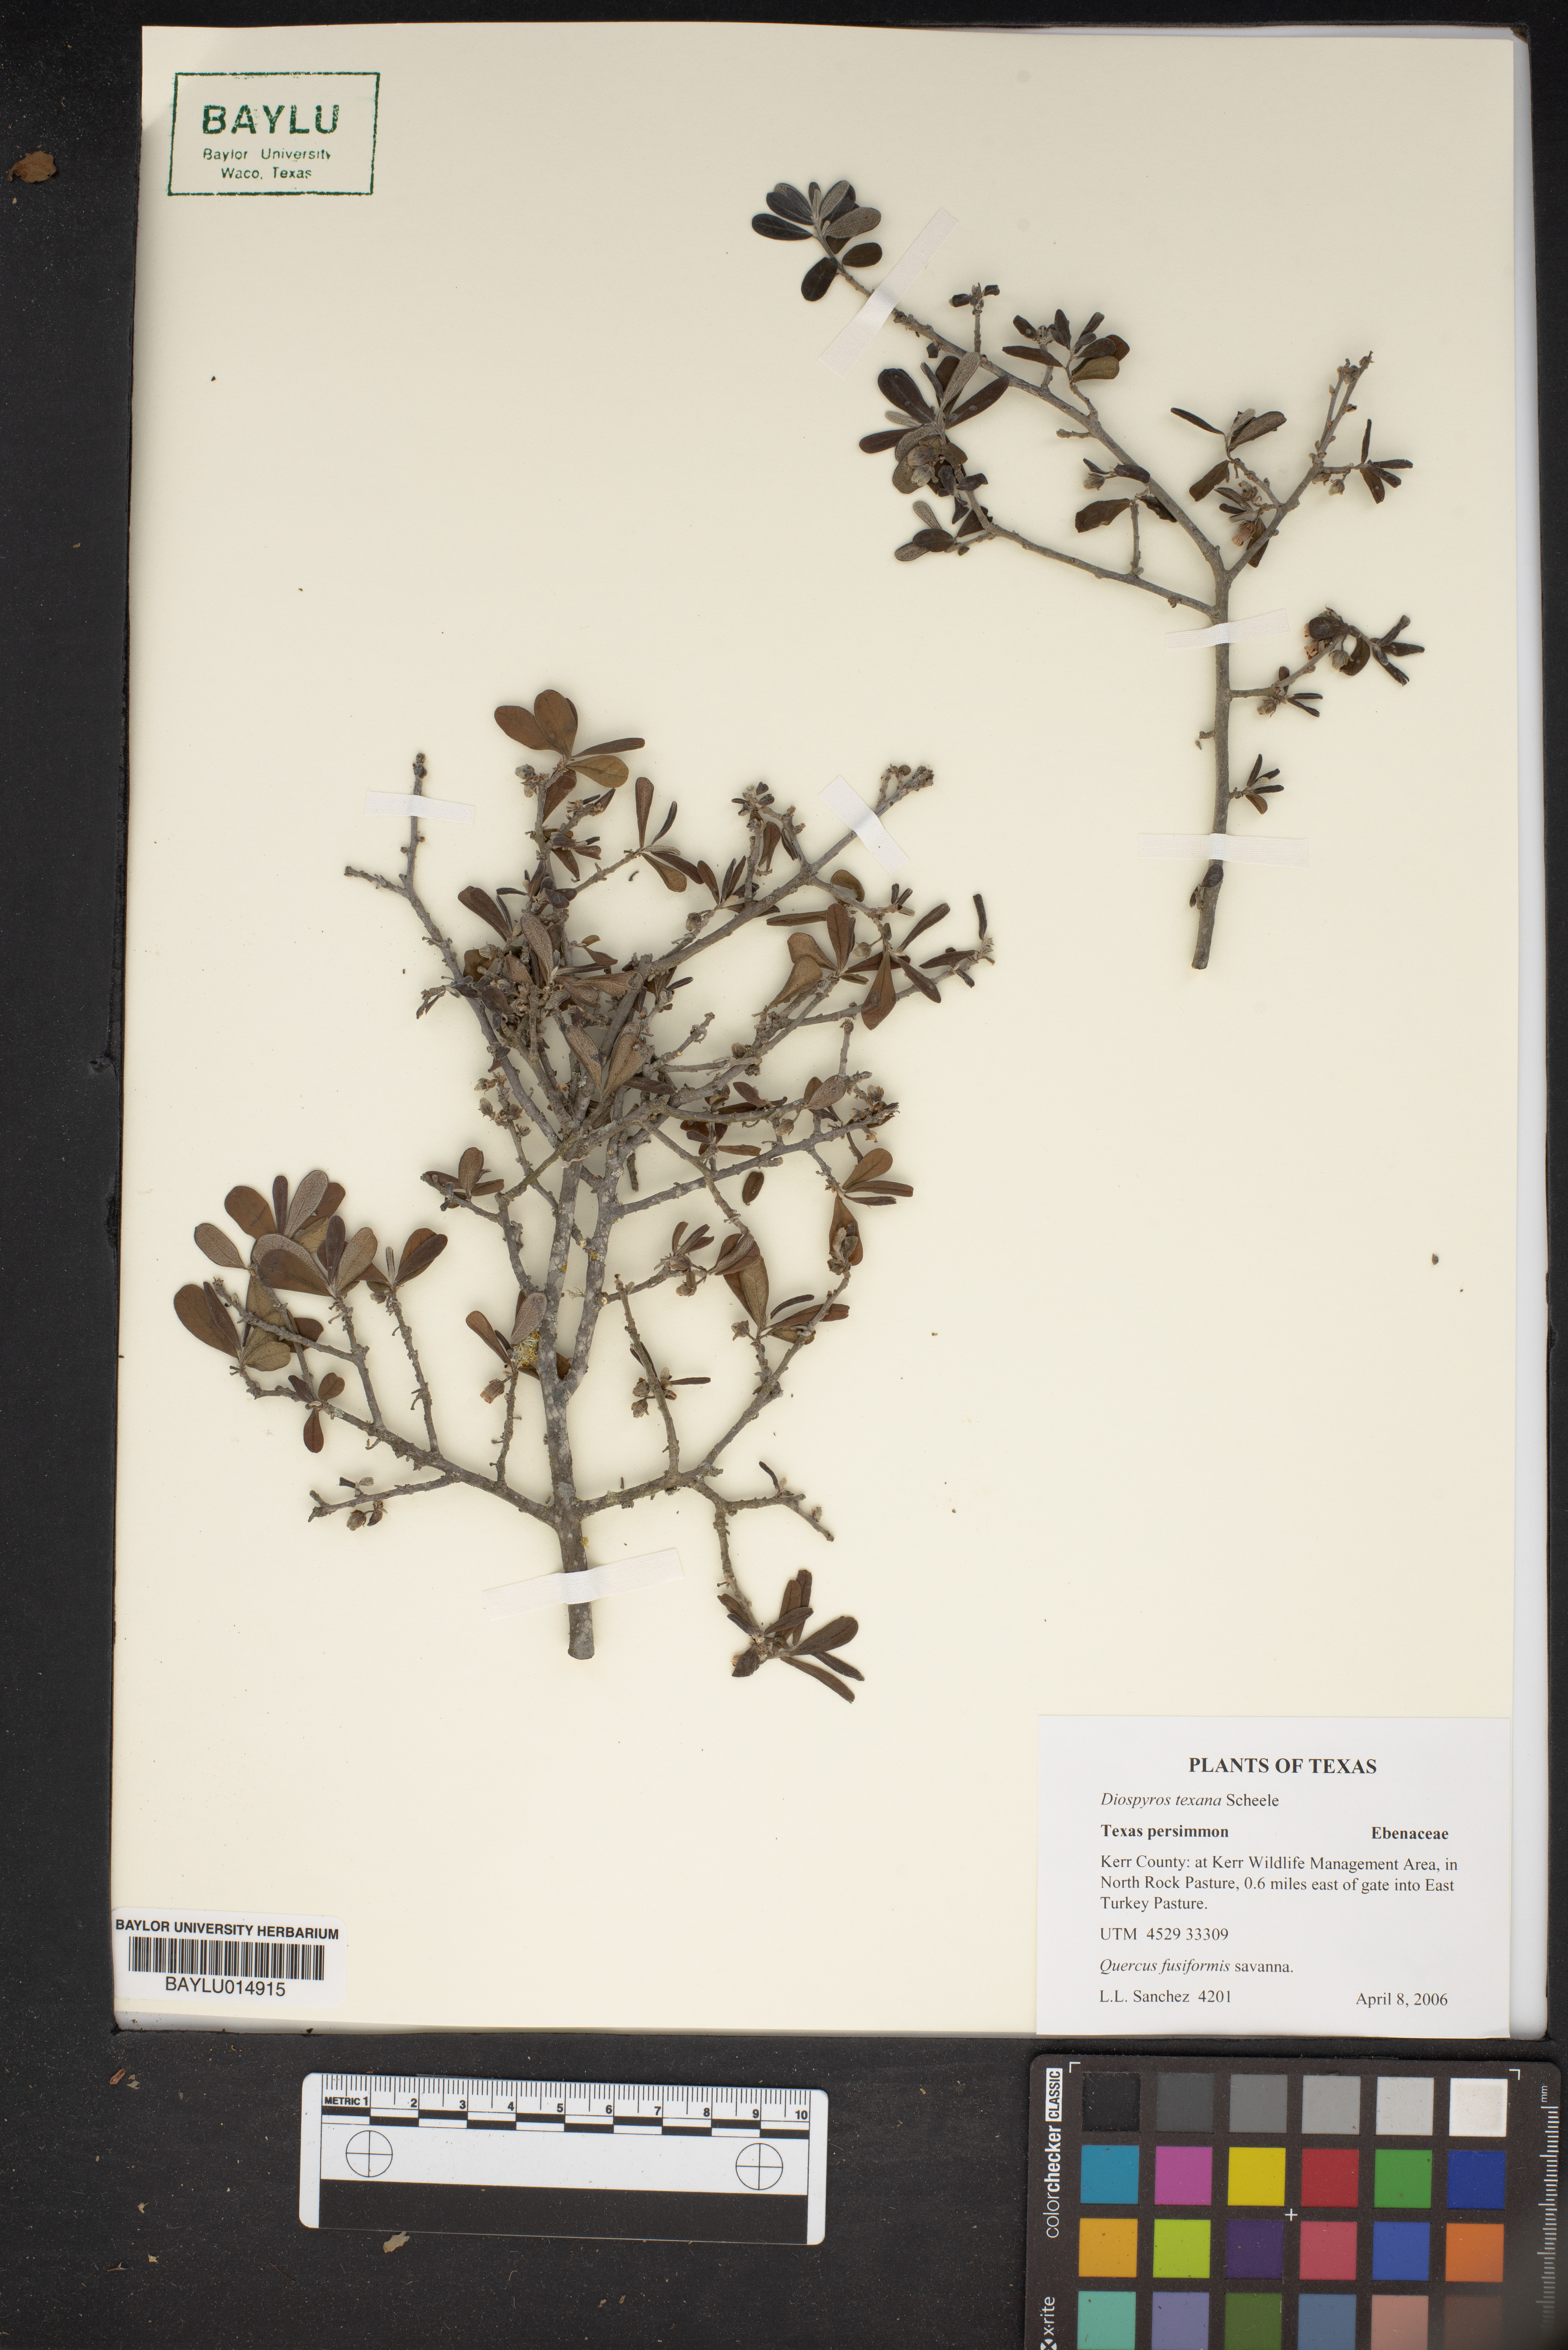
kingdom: Plantae
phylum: Tracheophyta
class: Magnoliopsida
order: Ericales
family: Ebenaceae
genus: Diospyros
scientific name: Diospyros texana
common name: Texas persimmon
